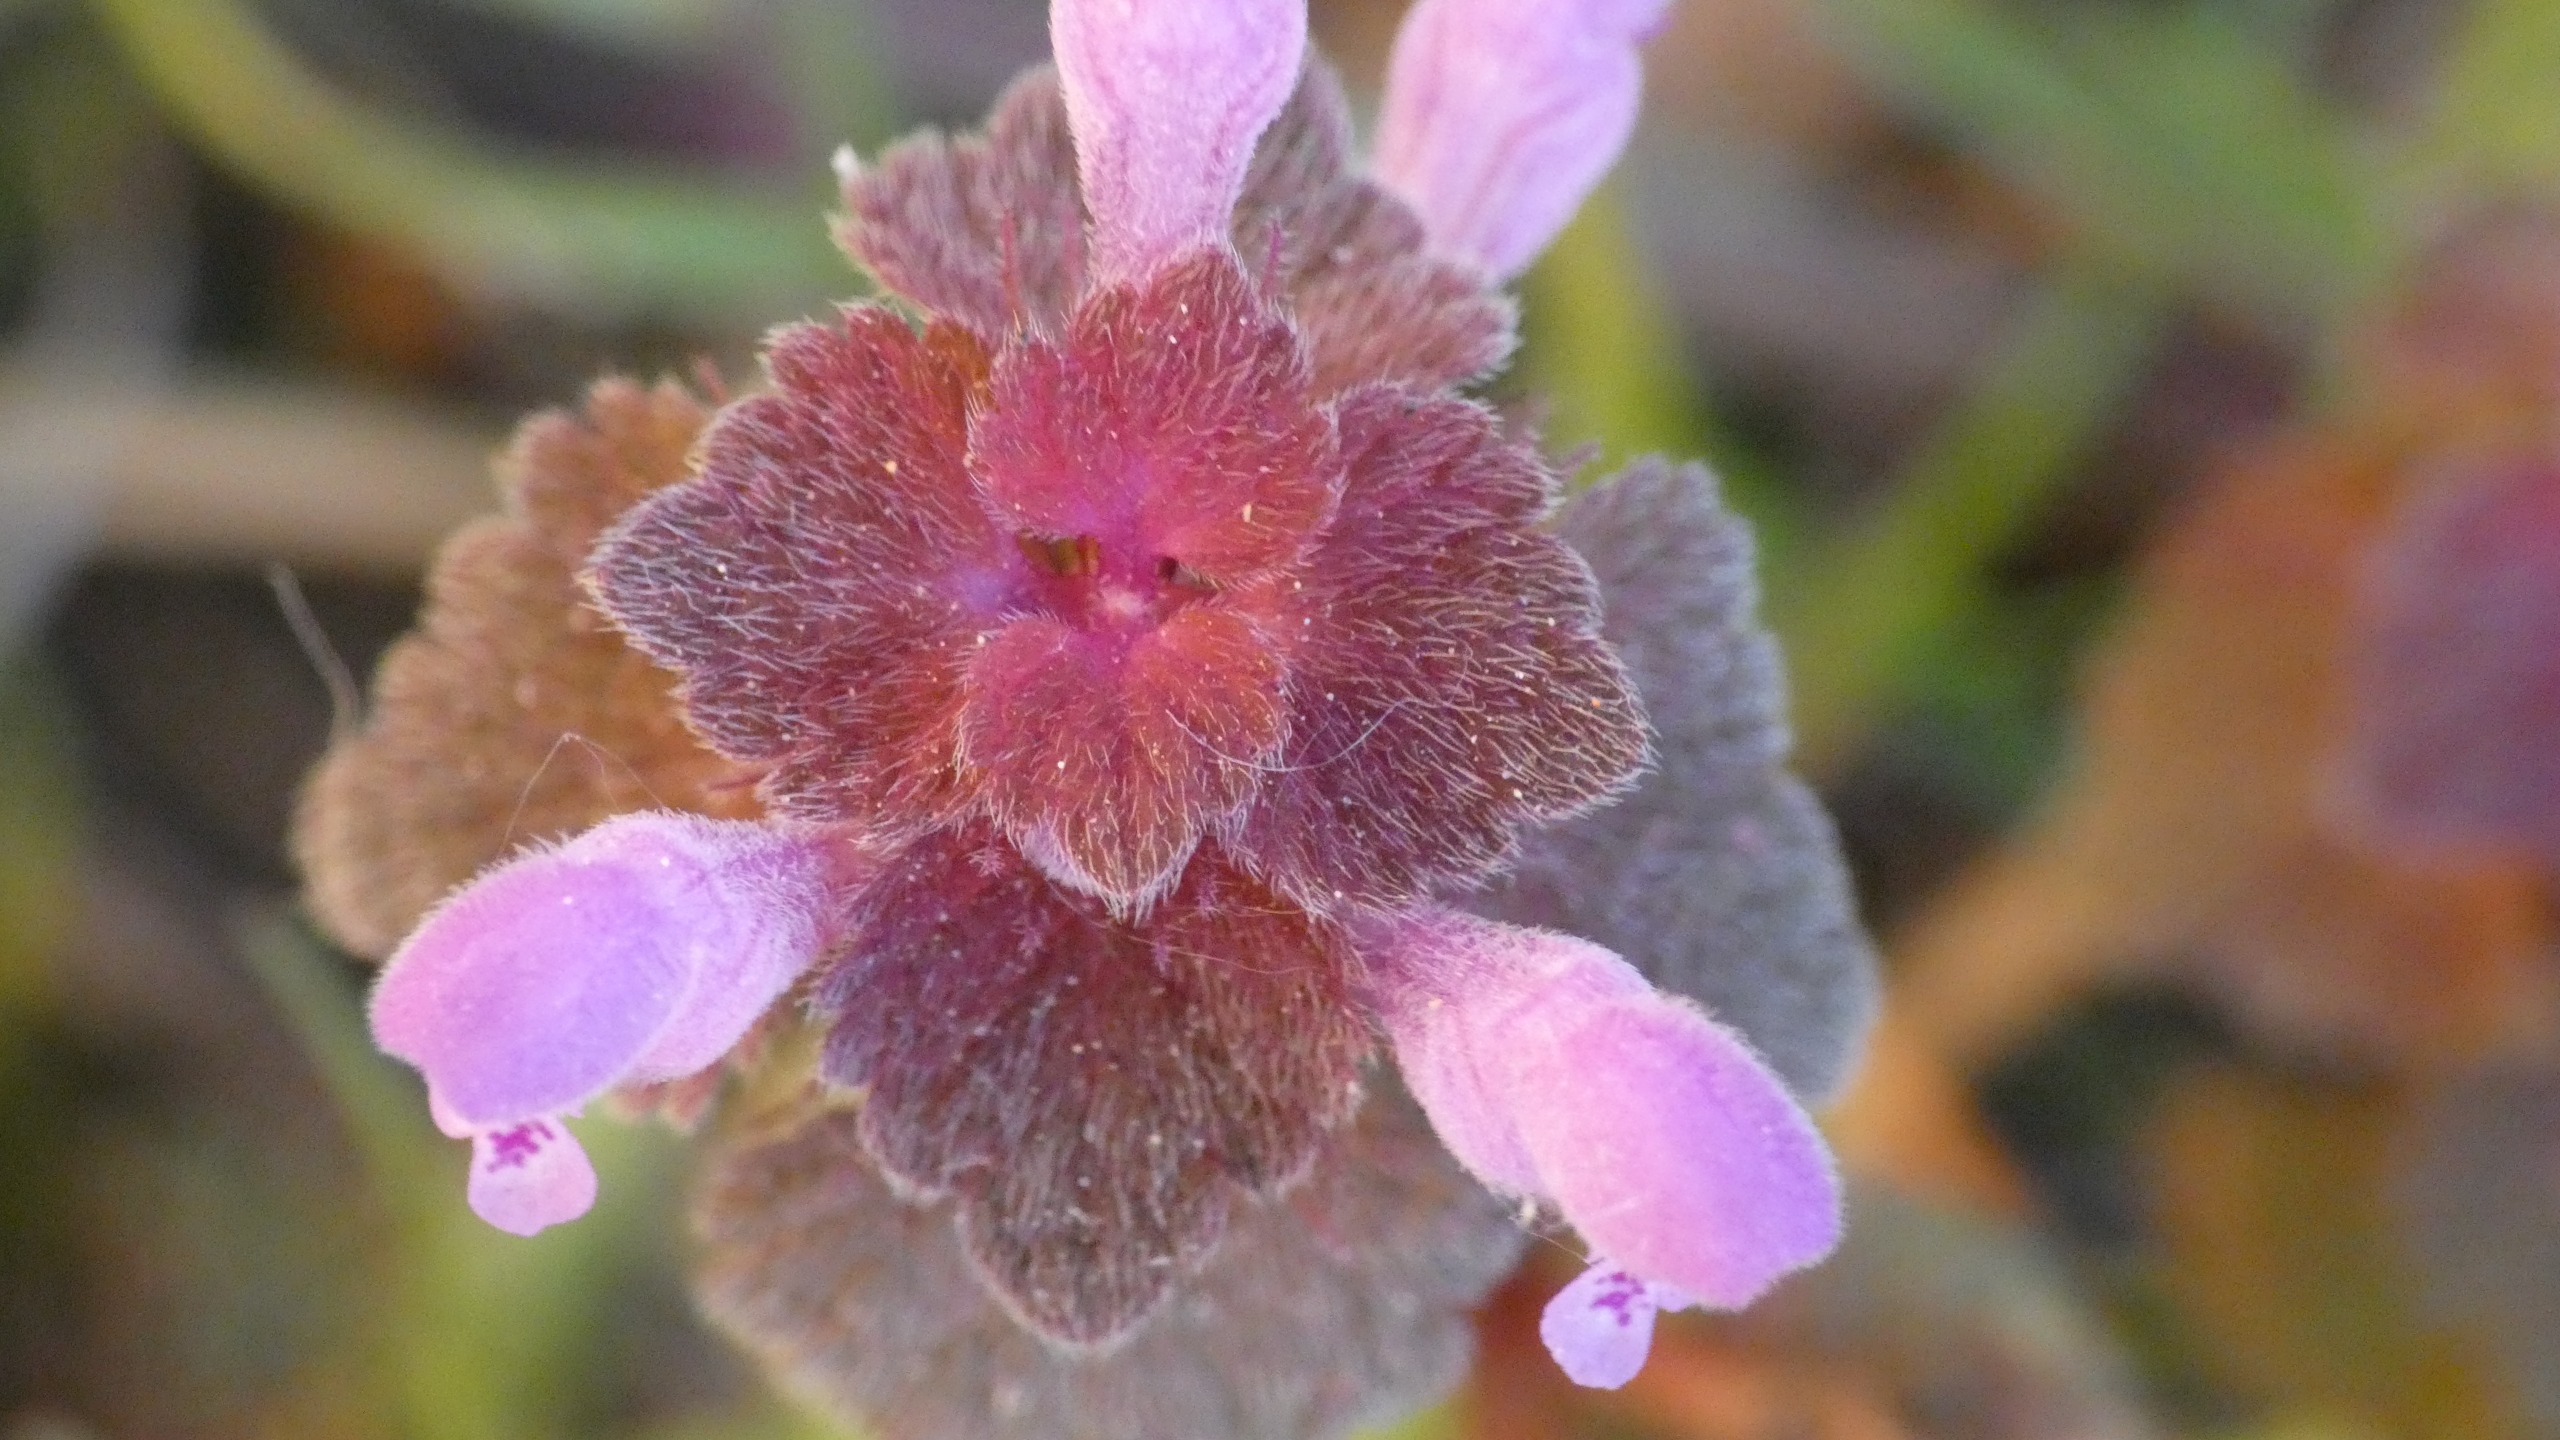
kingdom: Plantae
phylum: Tracheophyta
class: Magnoliopsida
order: Lamiales
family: Lamiaceae
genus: Lamium
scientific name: Lamium purpureum
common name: Rød tvetand
